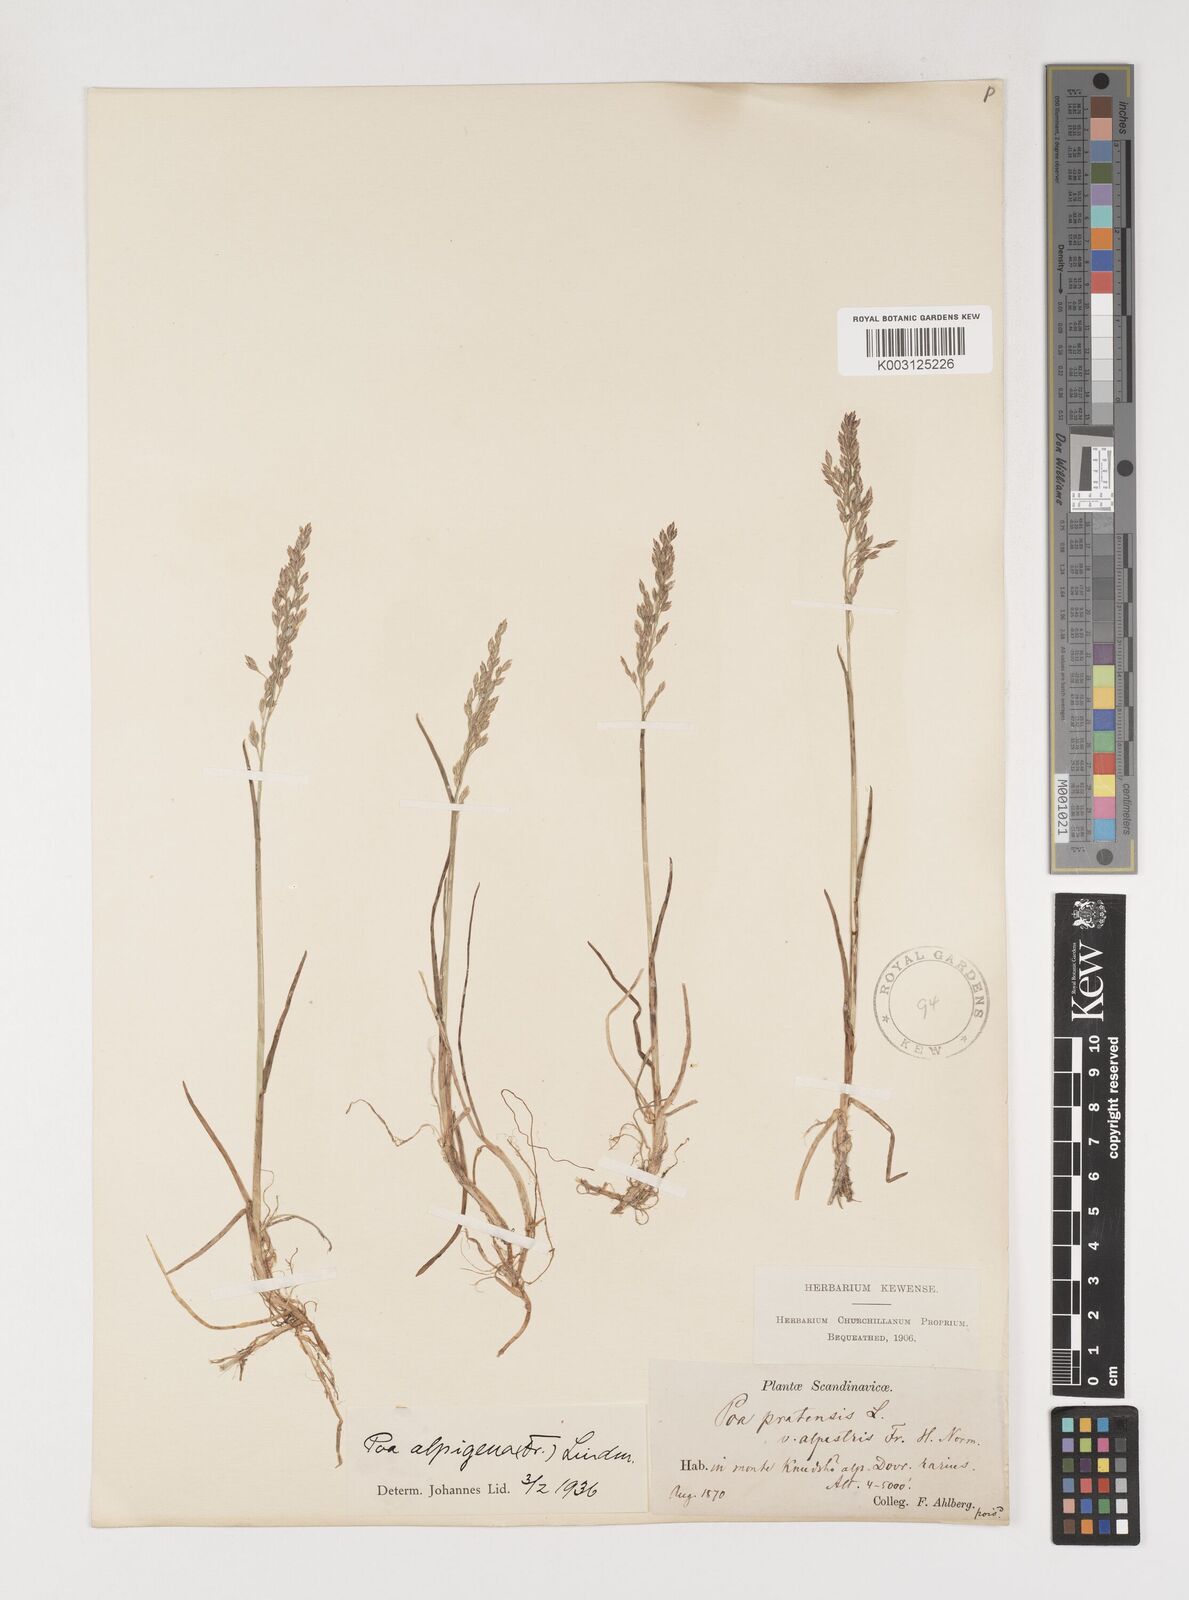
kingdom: Plantae
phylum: Tracheophyta
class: Liliopsida
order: Poales
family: Poaceae
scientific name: Poaceae
